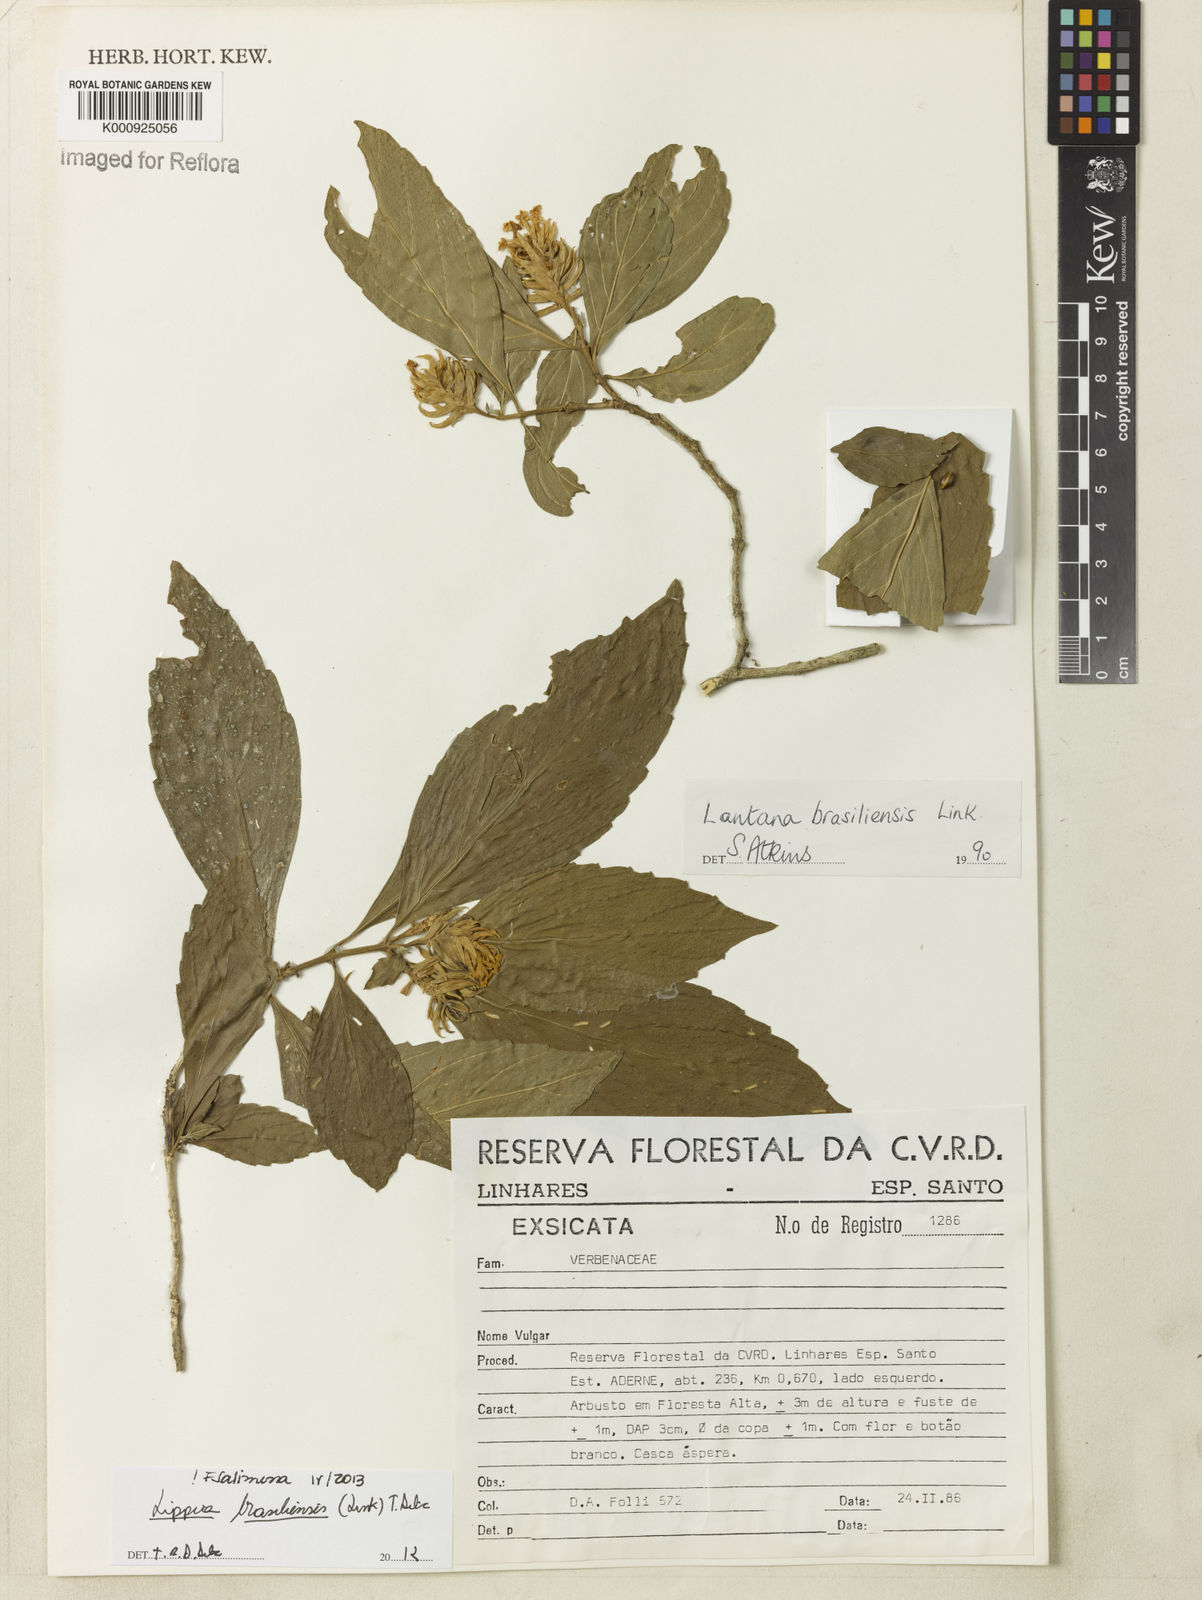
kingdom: Plantae
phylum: Tracheophyta
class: Magnoliopsida
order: Lamiales
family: Verbenaceae
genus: Lippia
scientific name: Lippia brasiliensis
